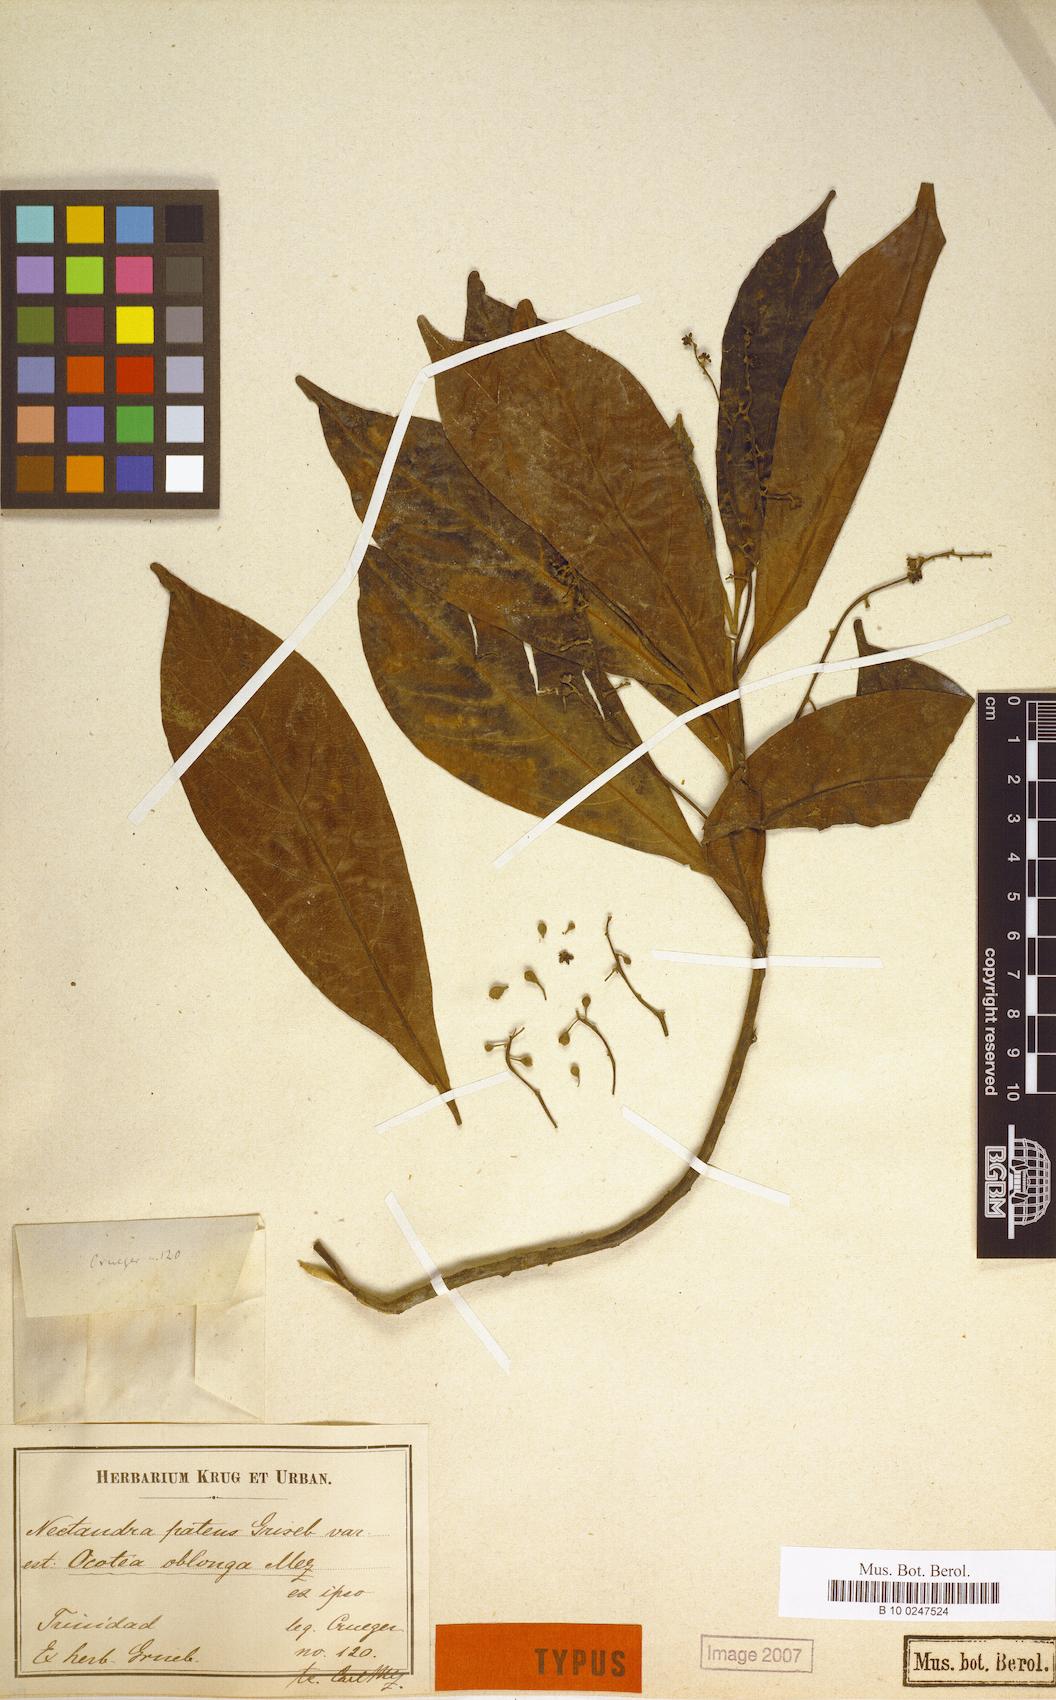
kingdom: Plantae
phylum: Tracheophyta
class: Magnoliopsida
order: Laurales
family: Lauraceae
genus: Ocotea
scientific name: Ocotea oblonga
